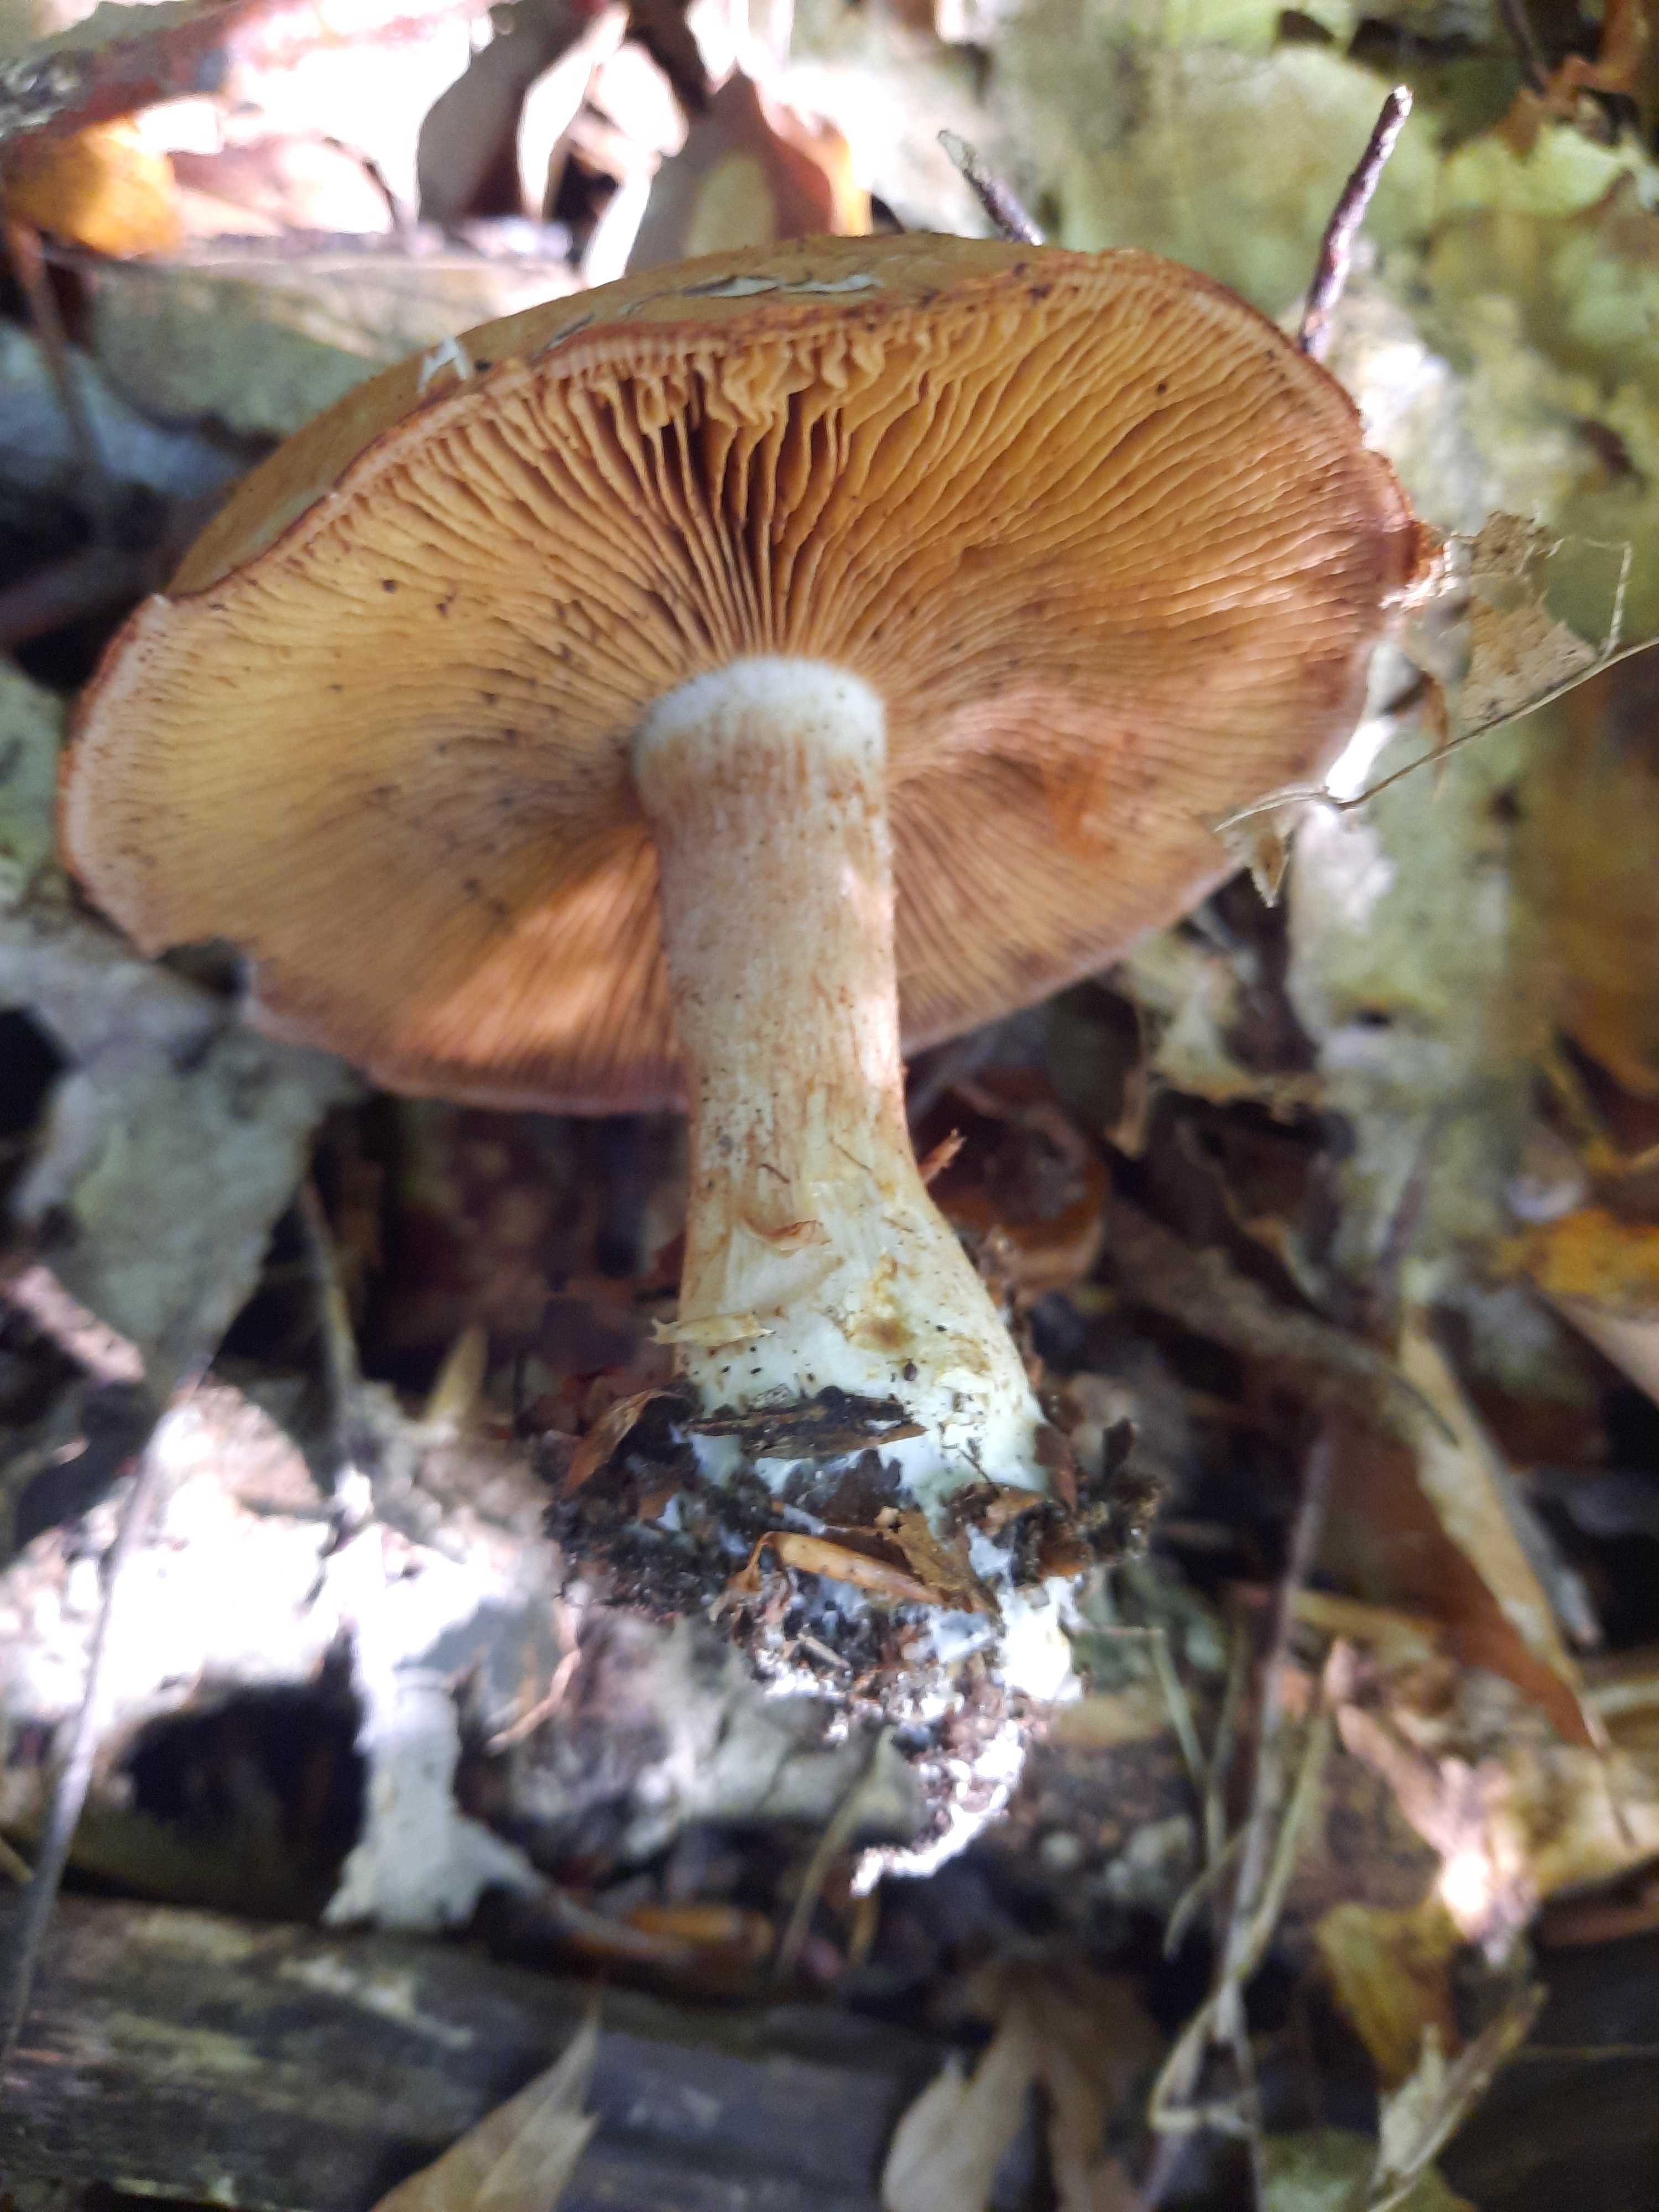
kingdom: Fungi
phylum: Basidiomycota
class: Agaricomycetes
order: Agaricales
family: Cortinariaceae
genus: Cortinarius
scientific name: Cortinarius
